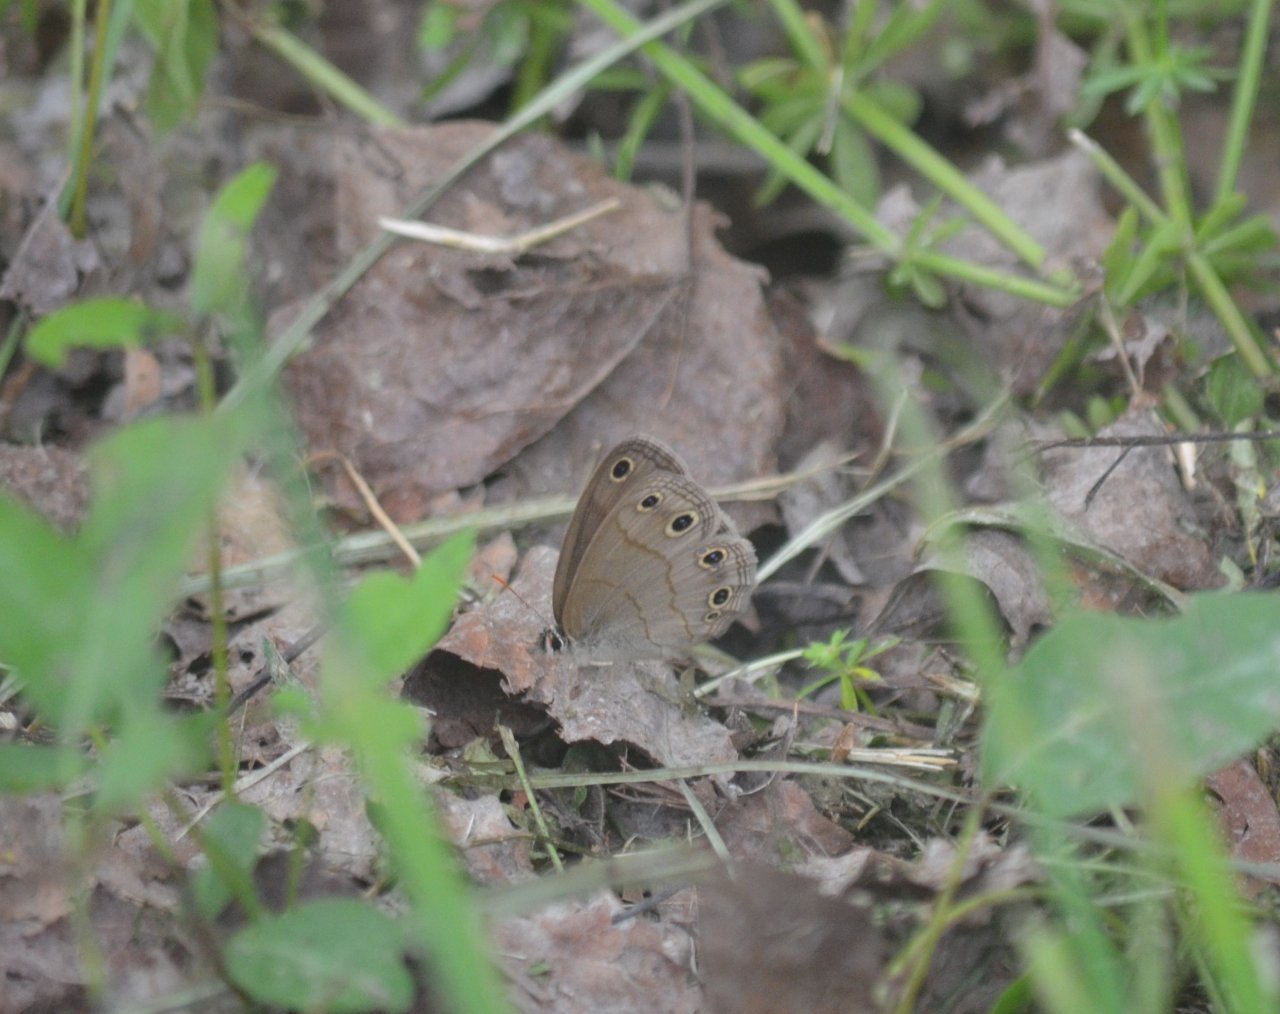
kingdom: Animalia
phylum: Arthropoda
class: Insecta
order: Lepidoptera
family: Nymphalidae
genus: Euptychia
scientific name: Euptychia cymela
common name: Little Wood Satyr
